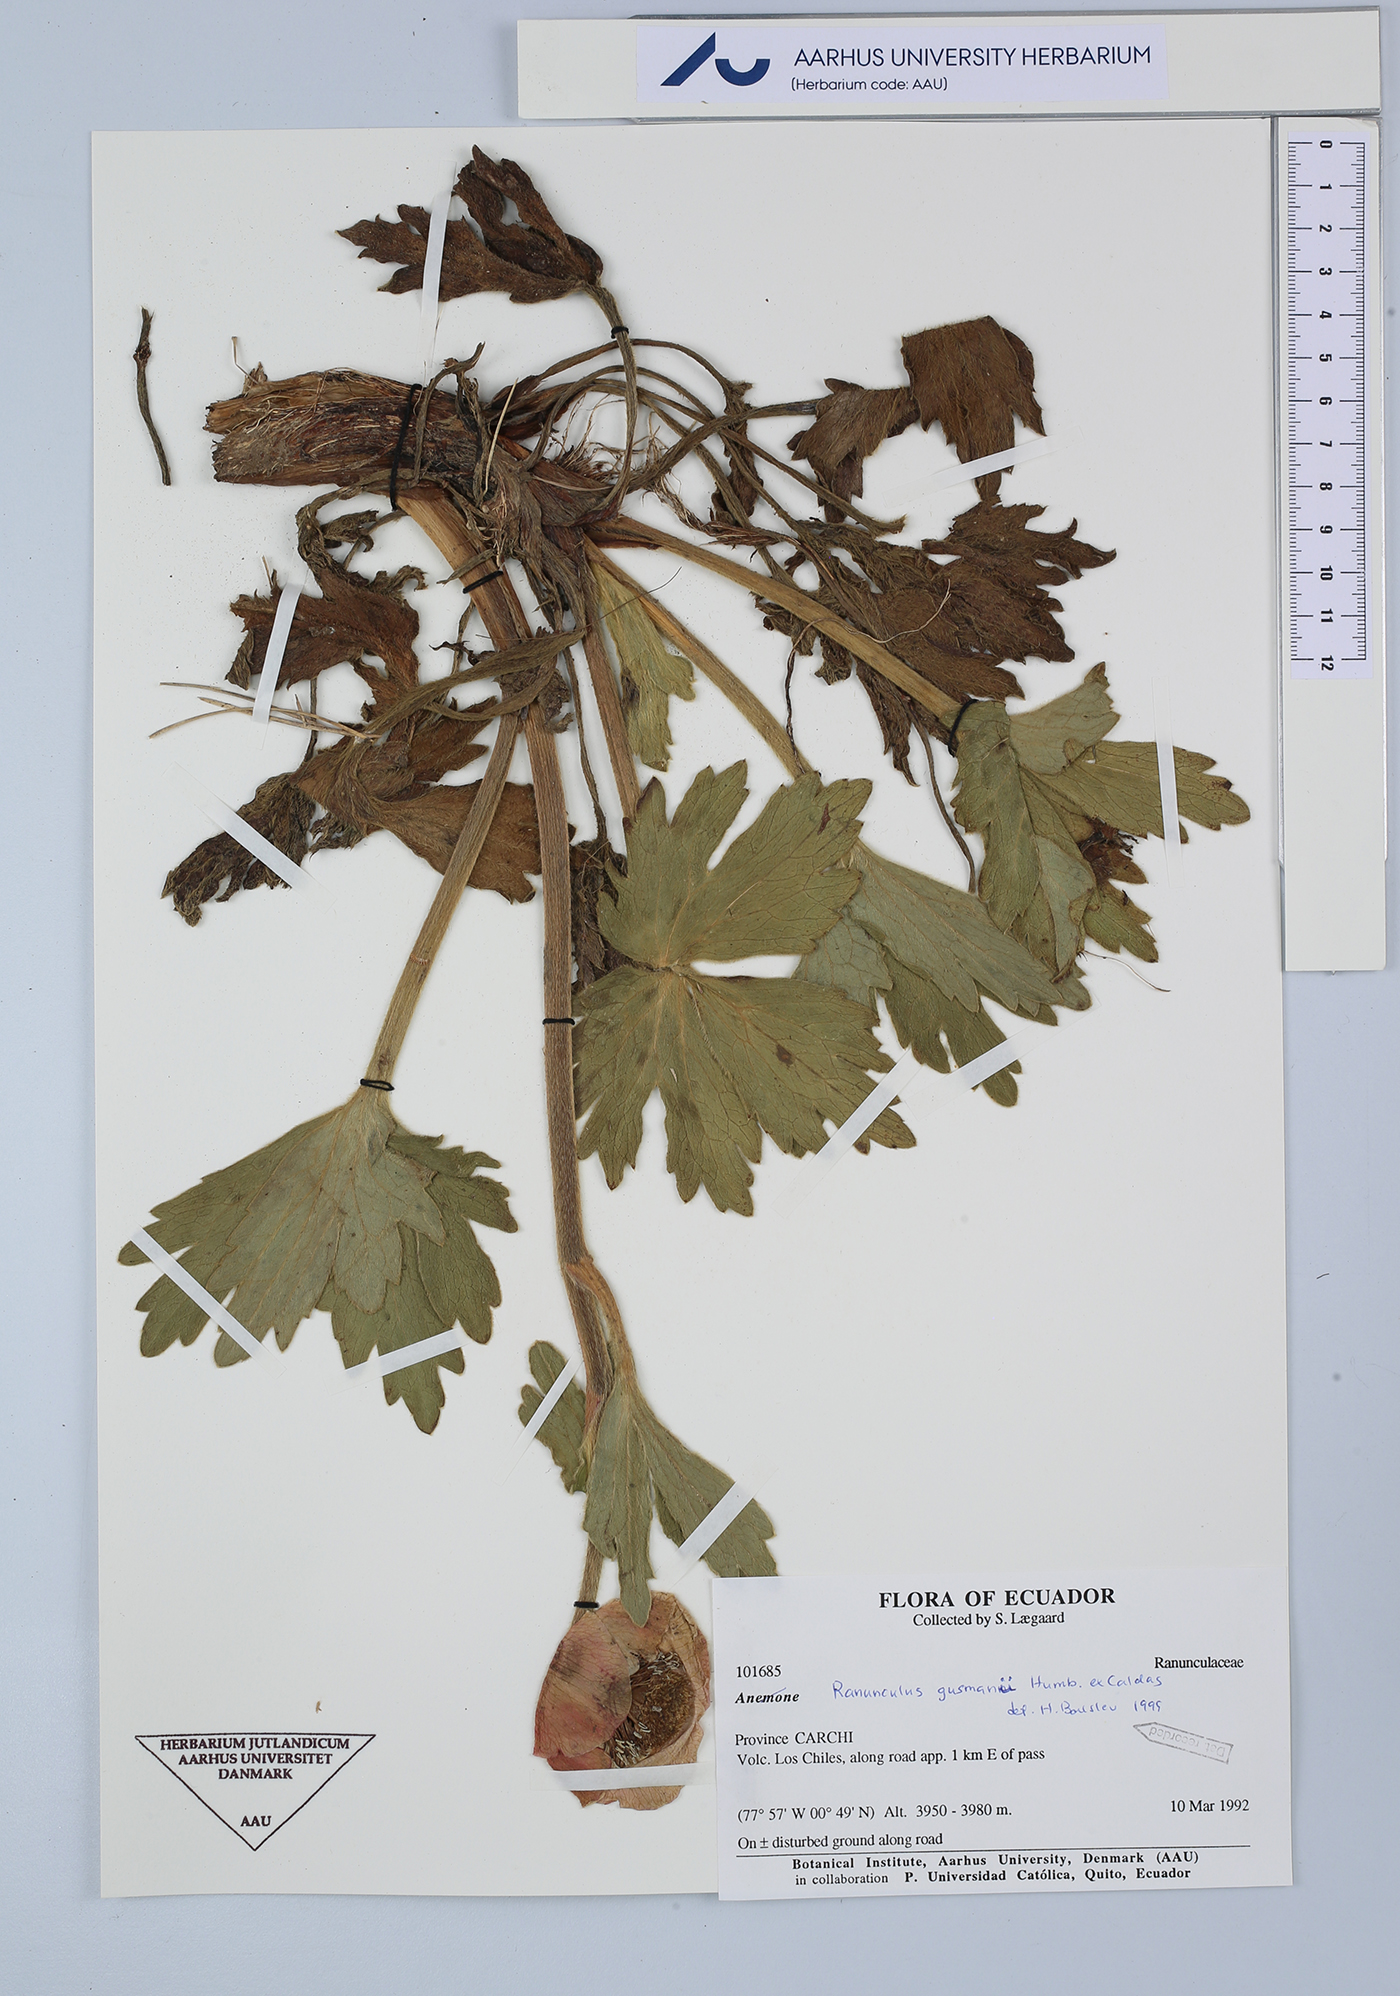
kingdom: Plantae
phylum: Tracheophyta
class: Magnoliopsida
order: Ranunculales
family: Ranunculaceae
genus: Krapfia
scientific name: Krapfia ranunculina
